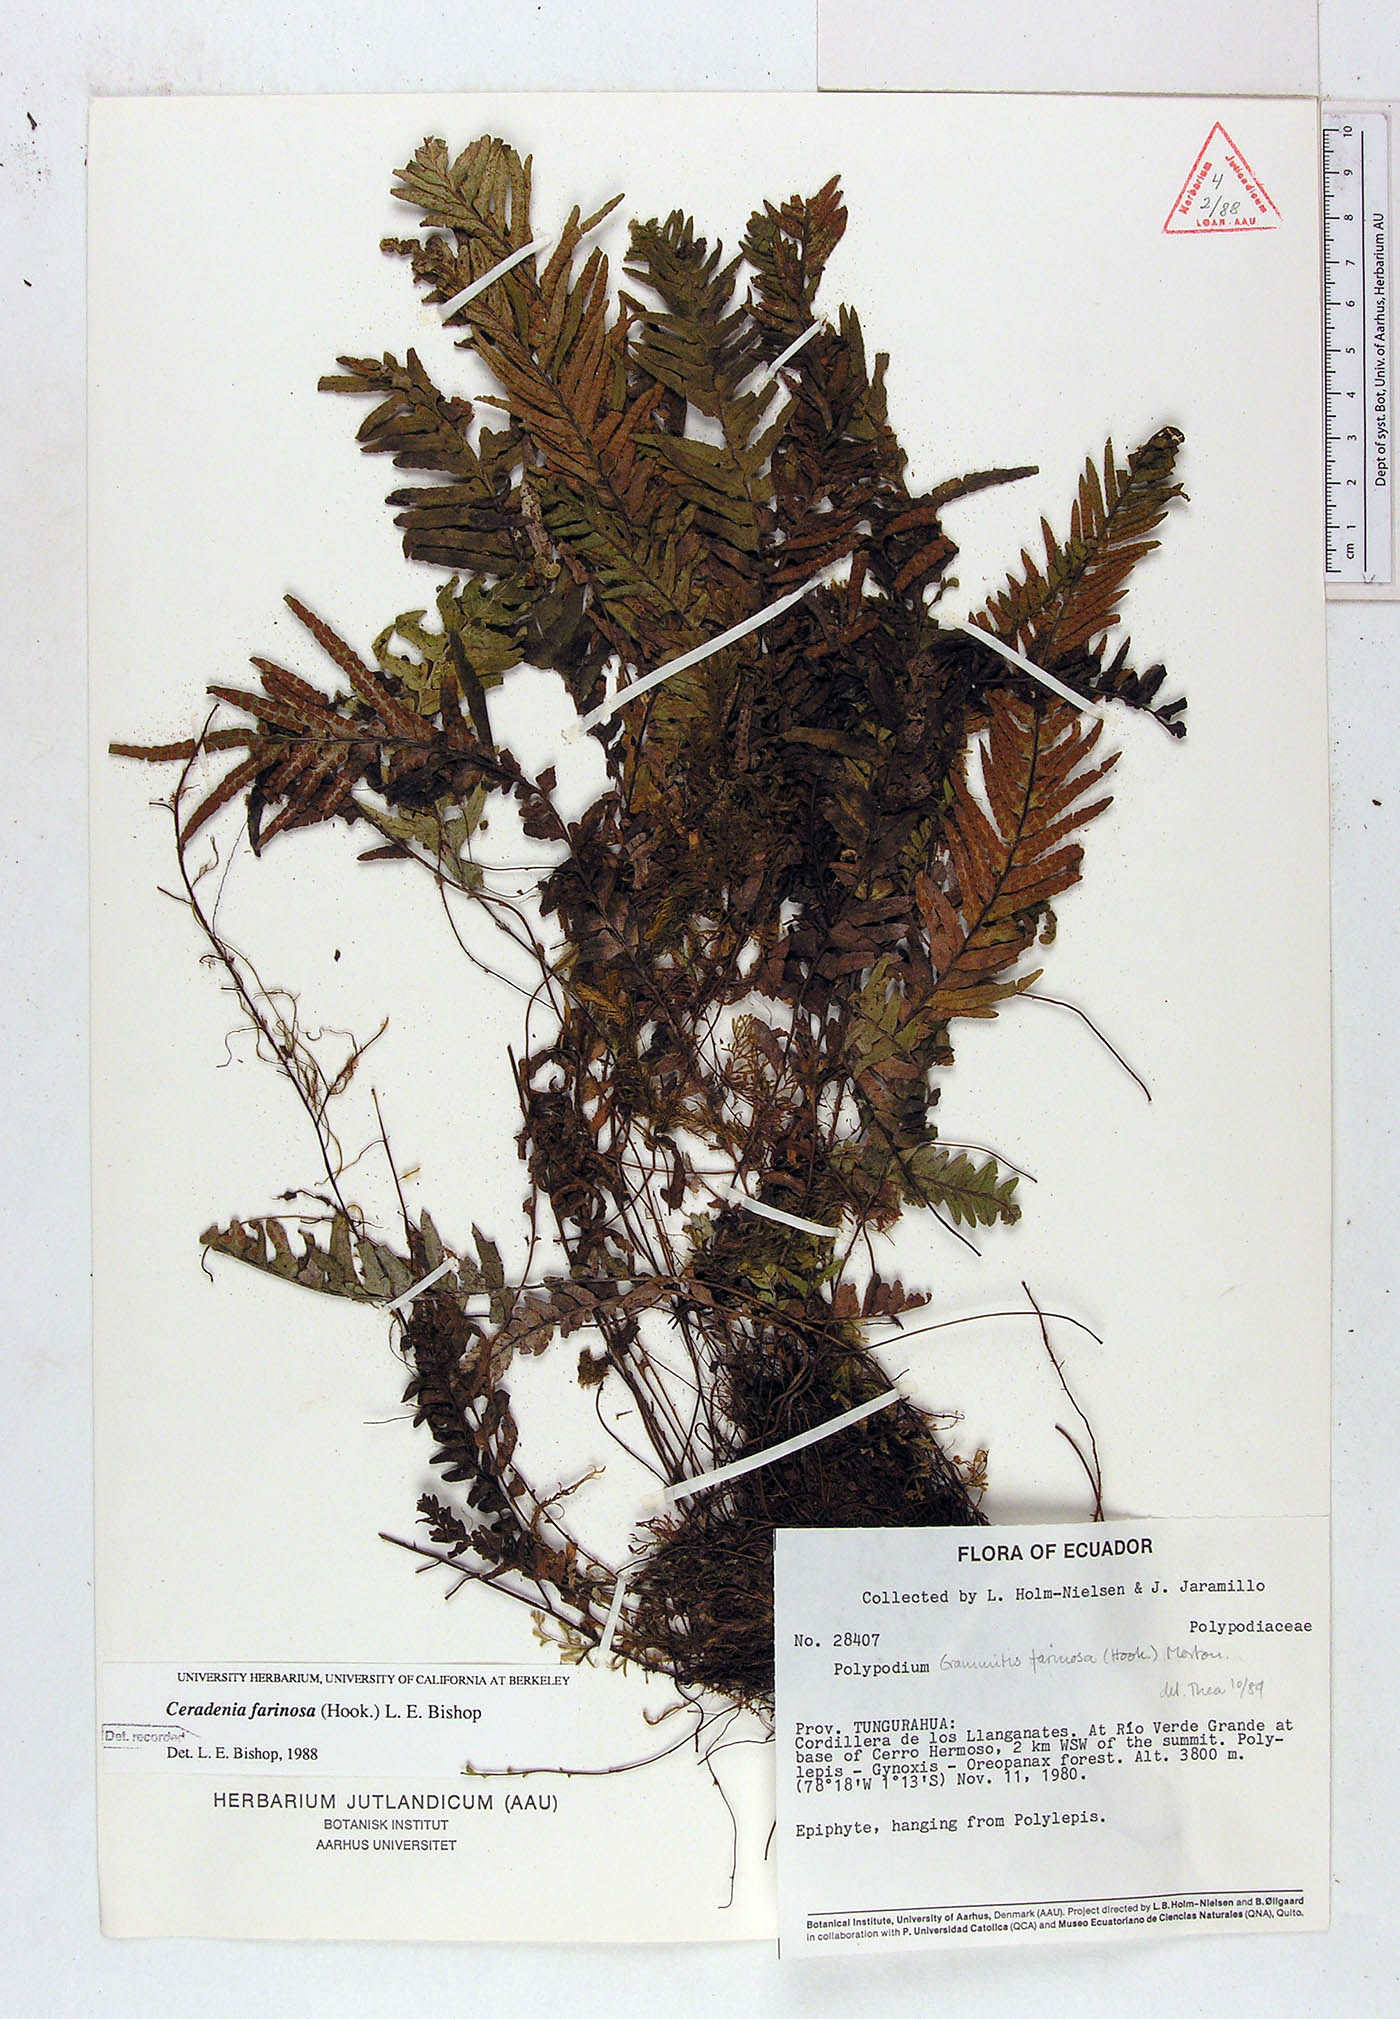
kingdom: Plantae
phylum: Tracheophyta
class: Polypodiopsida
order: Polypodiales
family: Polypodiaceae
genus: Ceradenia
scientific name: Ceradenia farinosa
